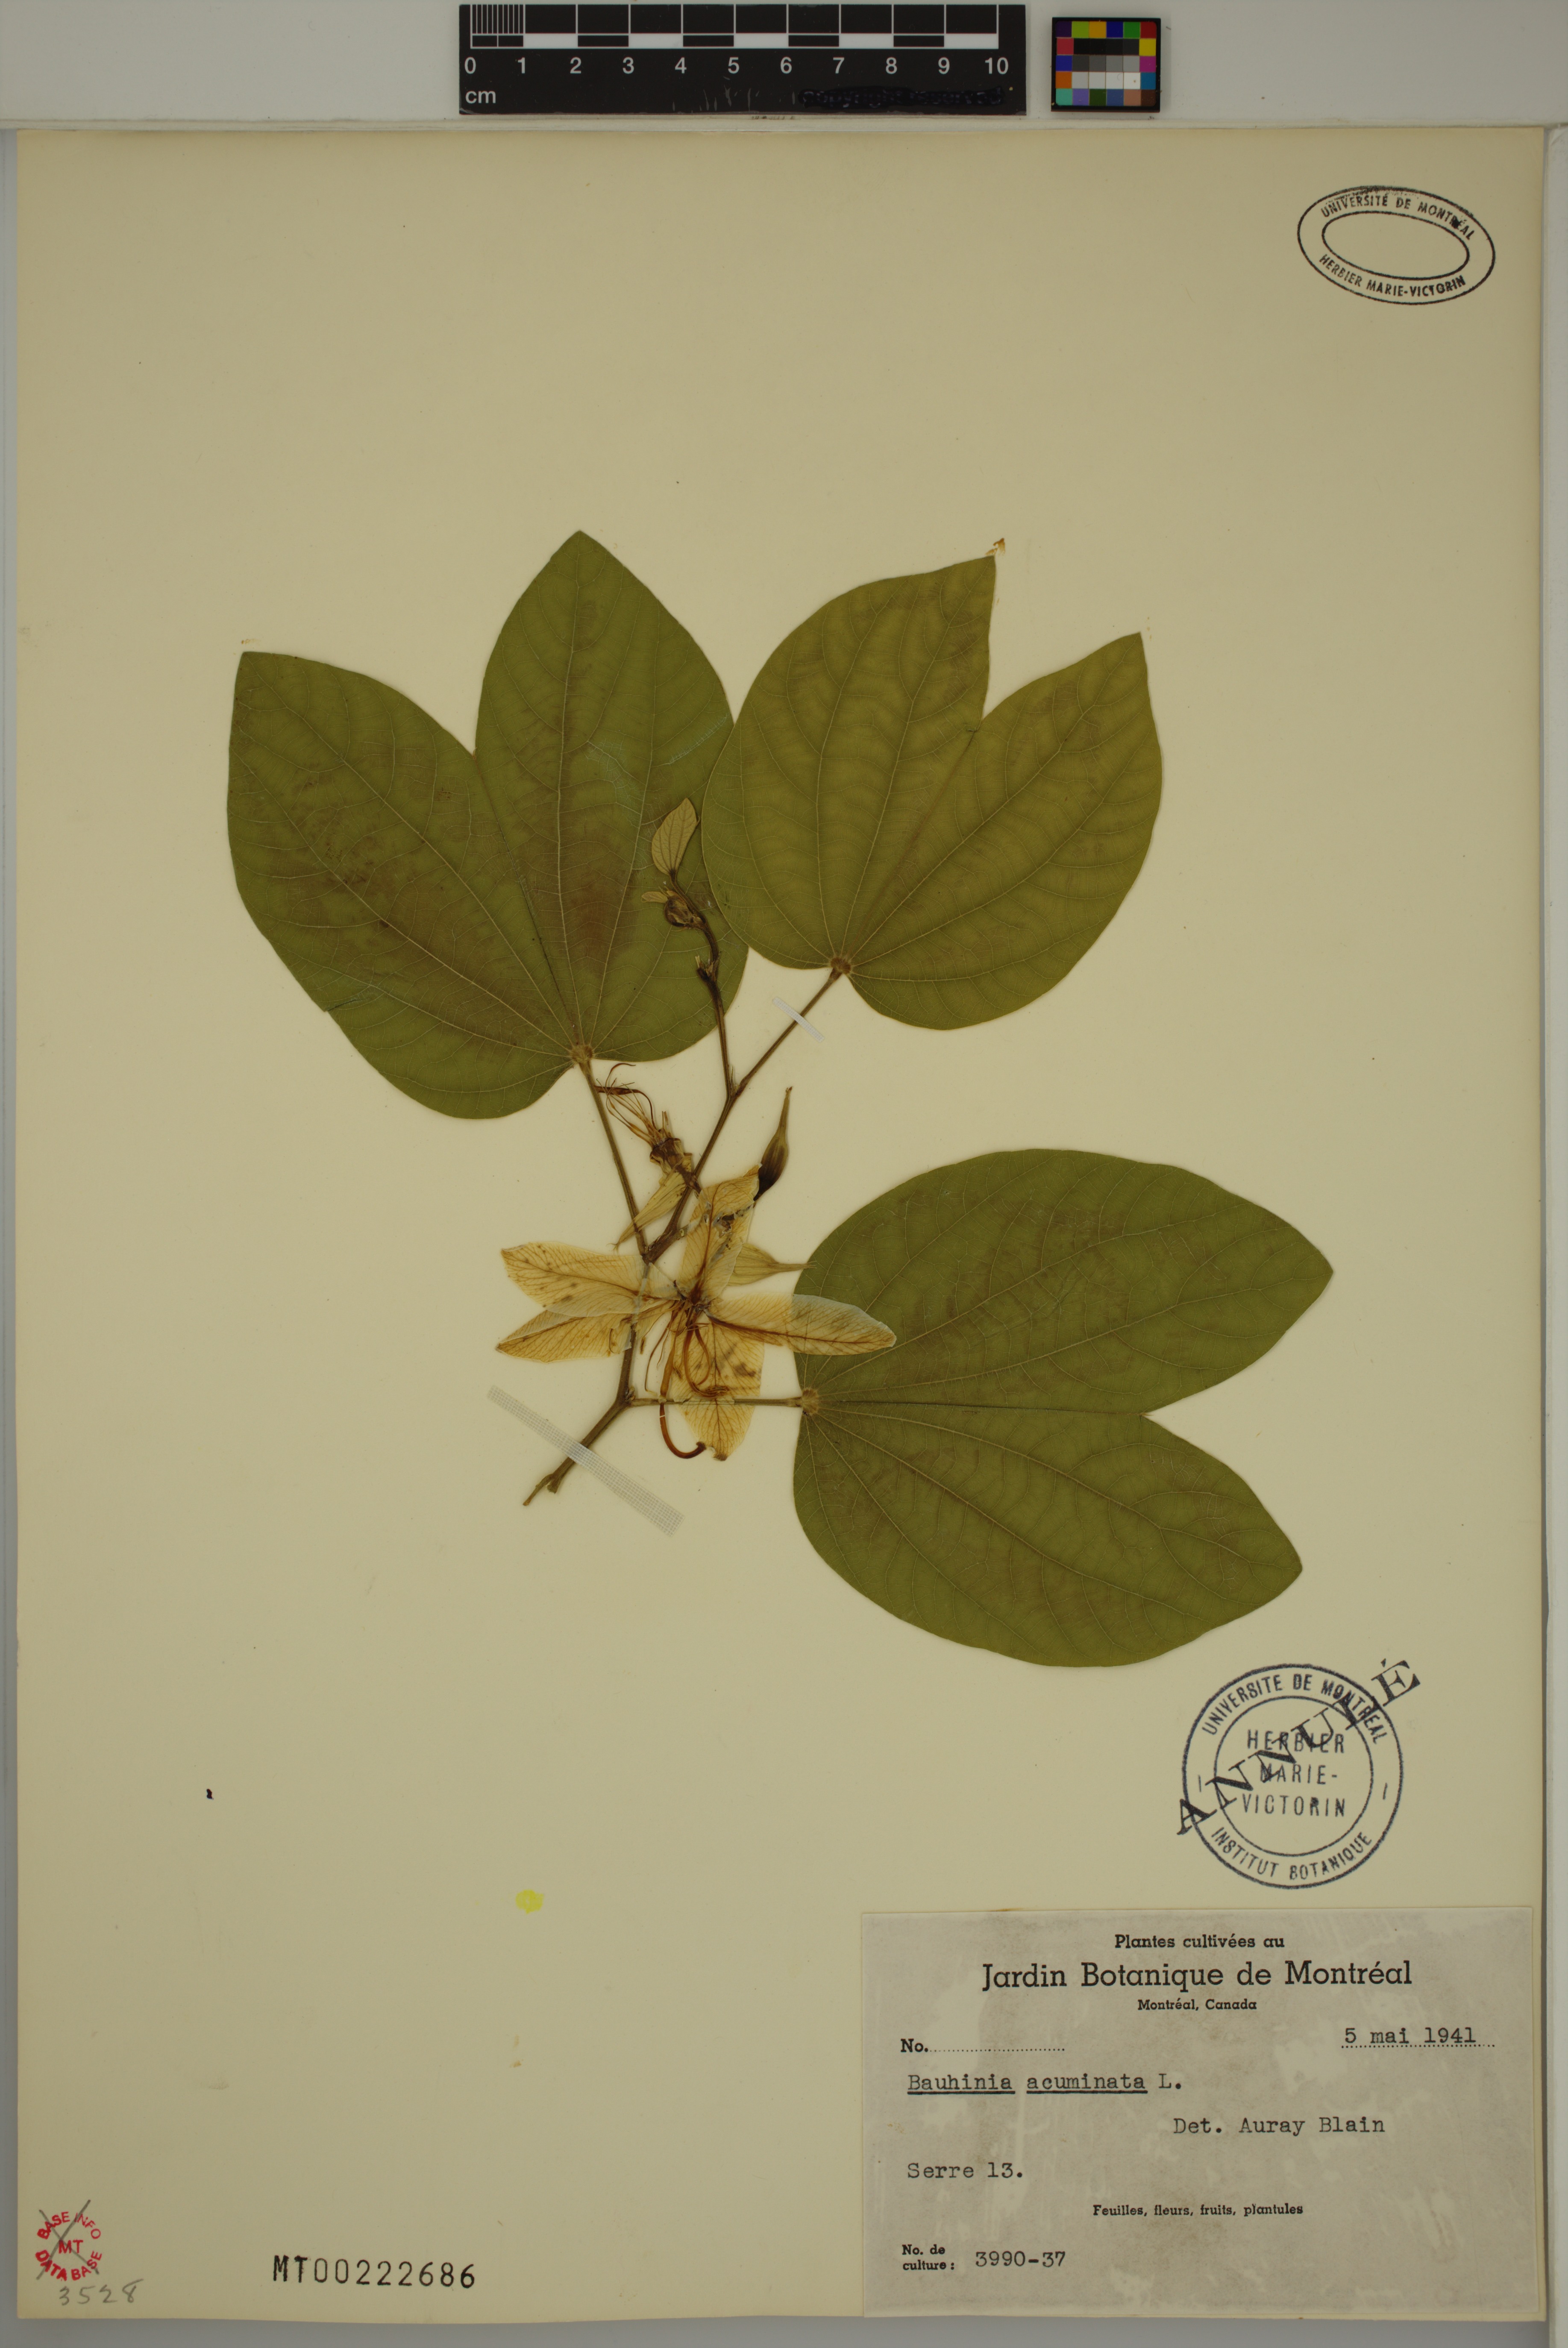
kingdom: Plantae
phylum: Tracheophyta
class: Magnoliopsida
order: Fabales
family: Fabaceae
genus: Bauhinia
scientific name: Bauhinia acuminata
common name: Dwarf white bauhinia
